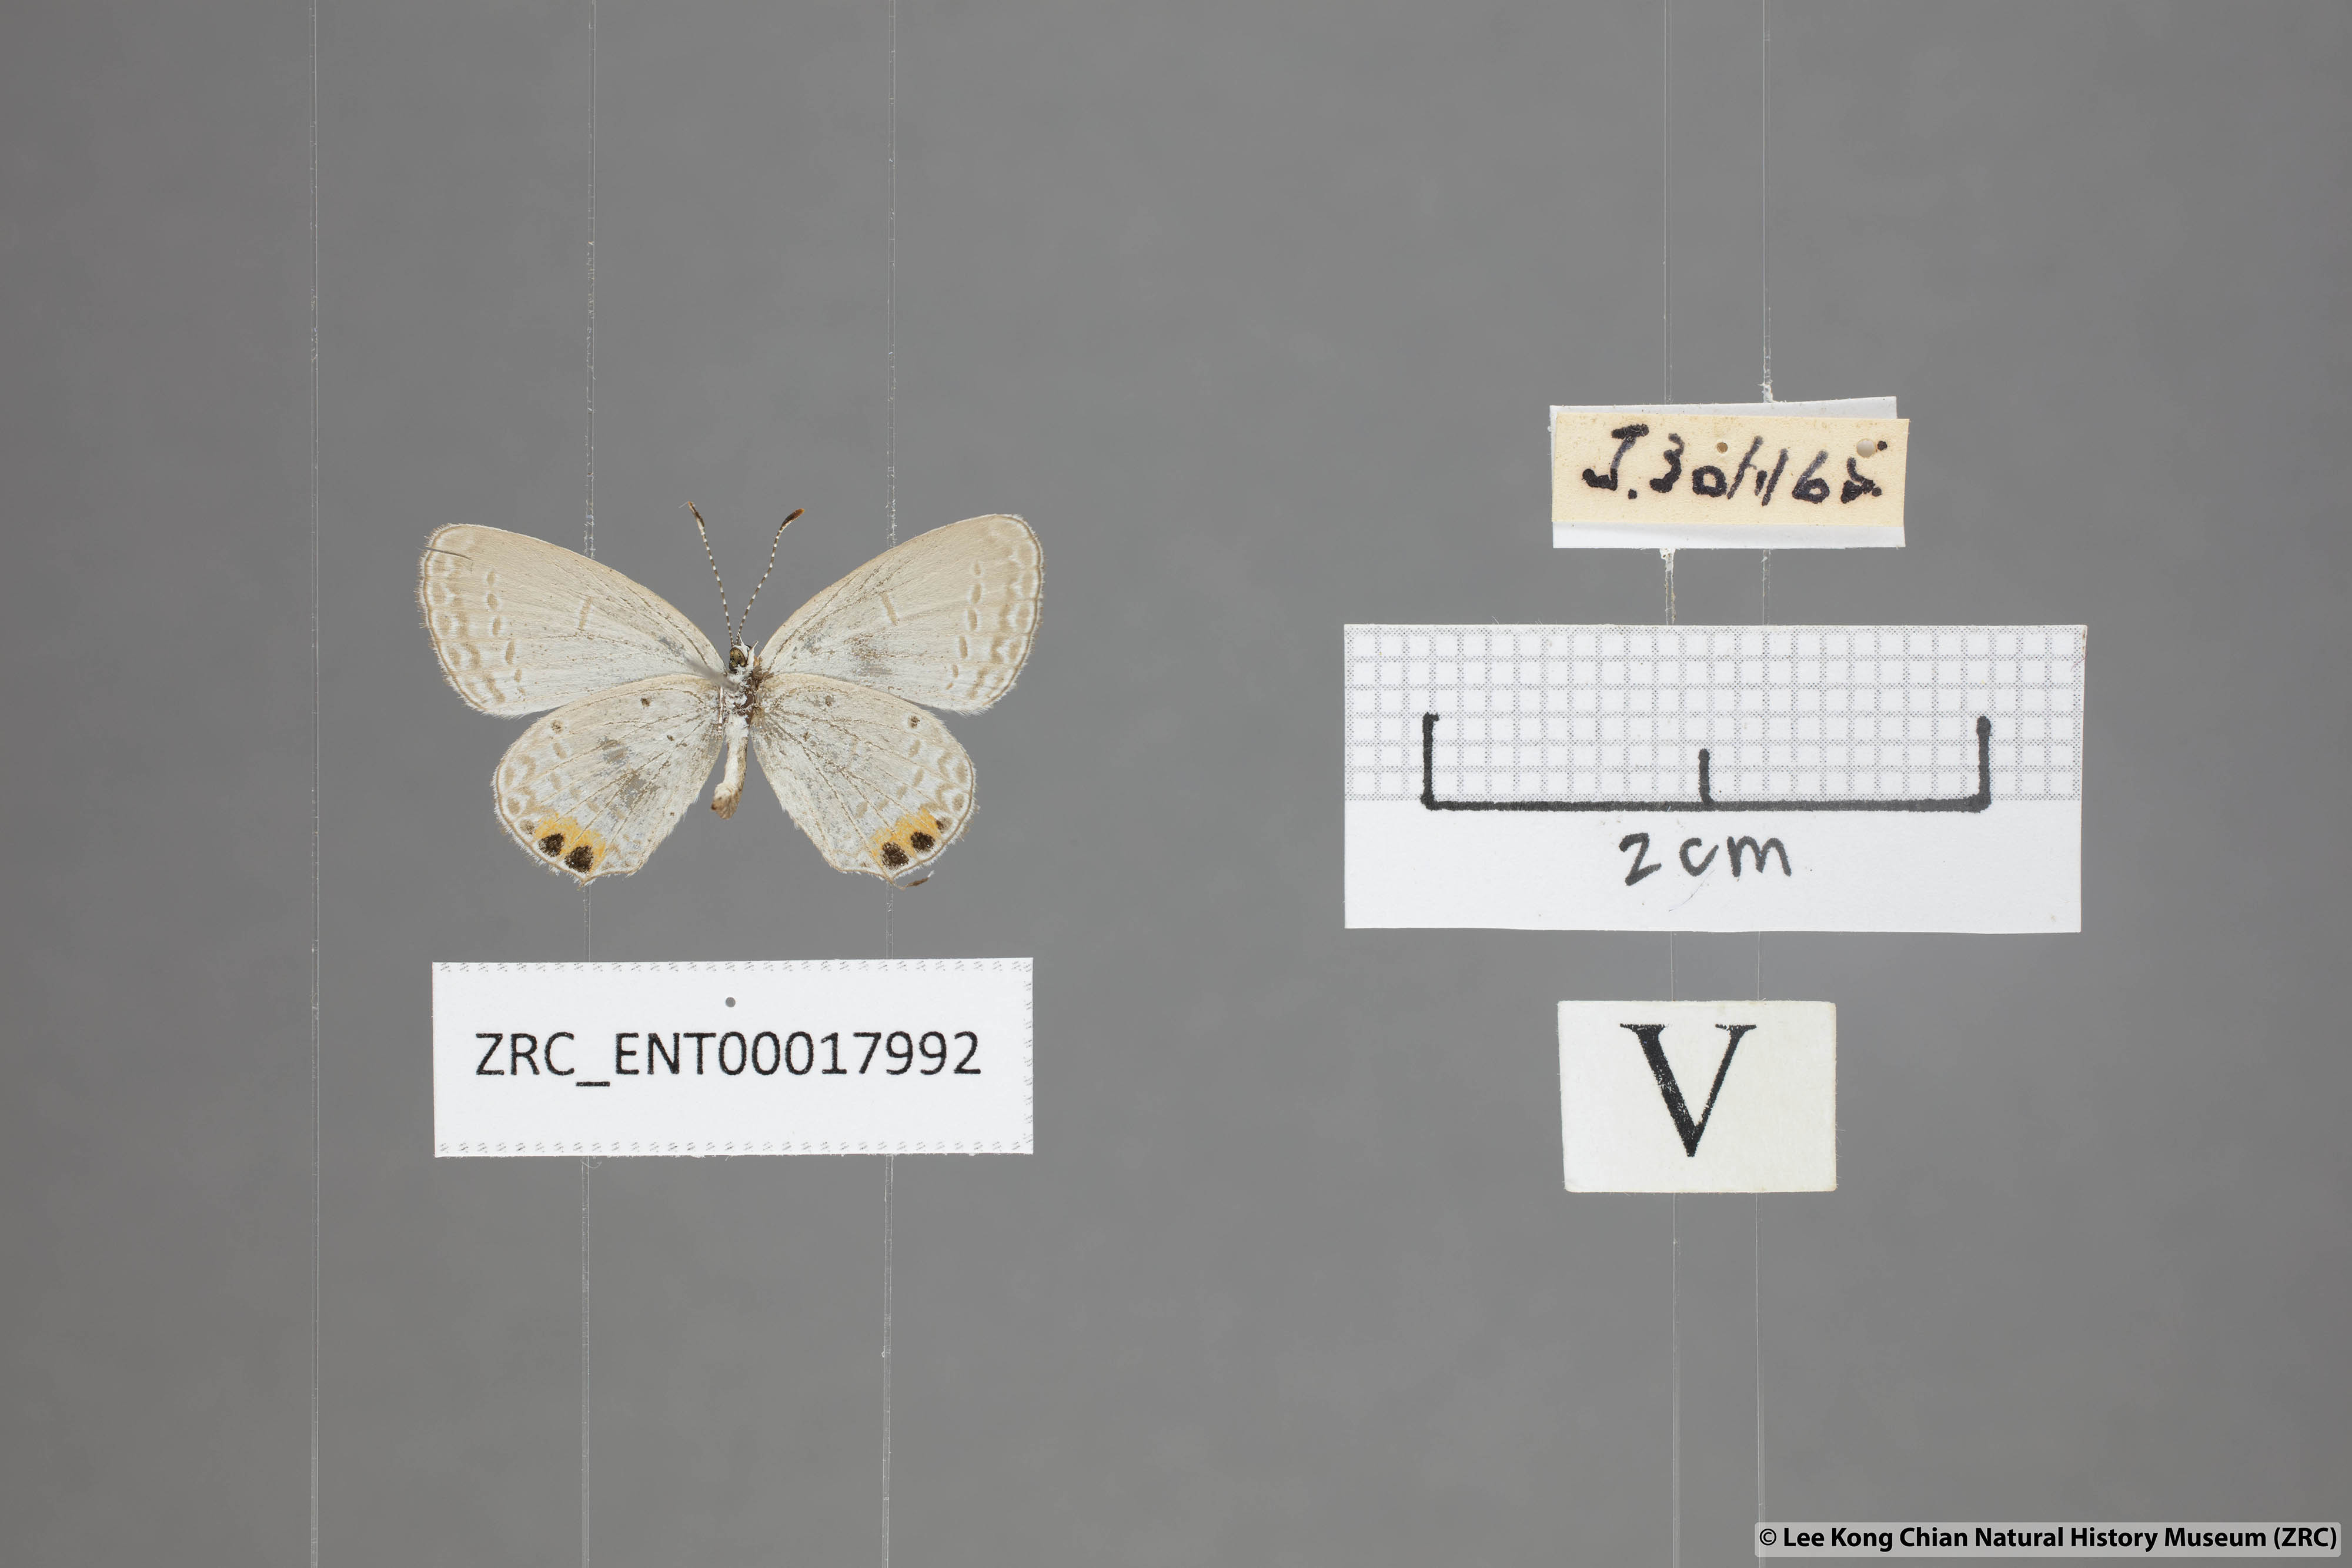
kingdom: Animalia
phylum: Arthropoda
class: Insecta
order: Lepidoptera
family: Lycaenidae
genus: Everes
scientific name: Everes lacturnus
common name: Orange-tipped pea-blue
